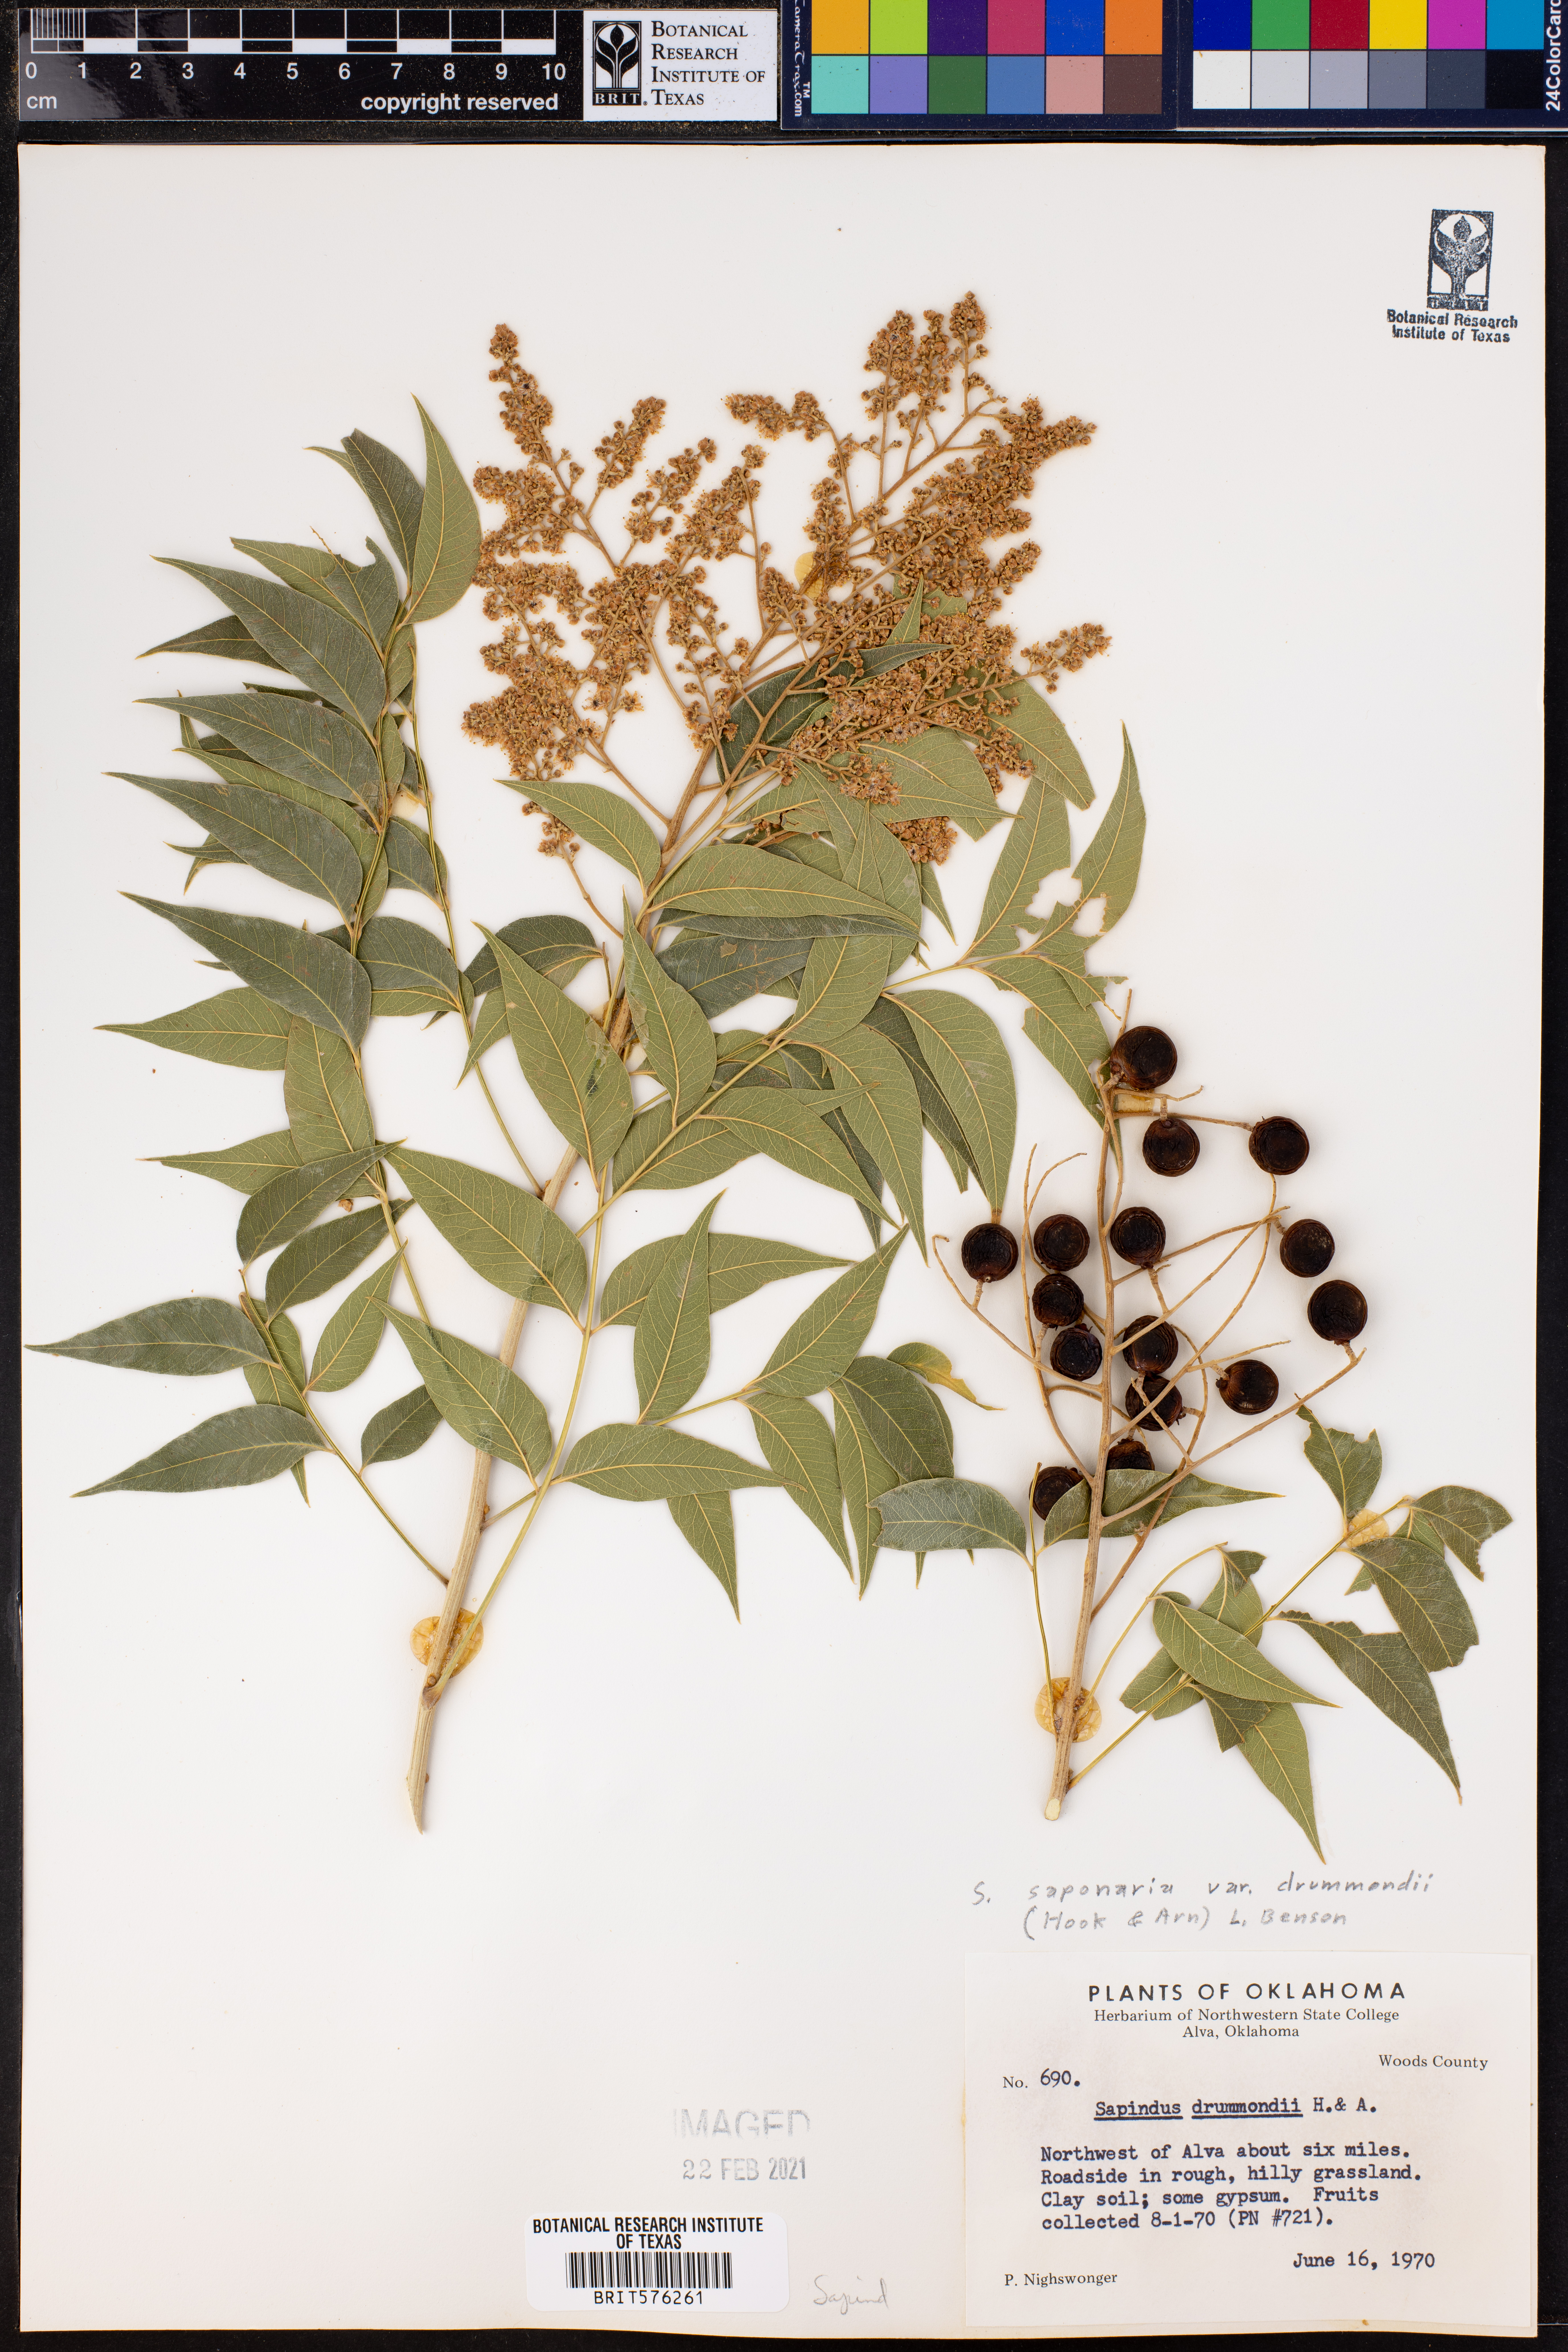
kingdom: Plantae
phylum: Tracheophyta
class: Magnoliopsida
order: Sapindales
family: Sapindaceae
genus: Sapindus
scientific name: Sapindus drummondii
